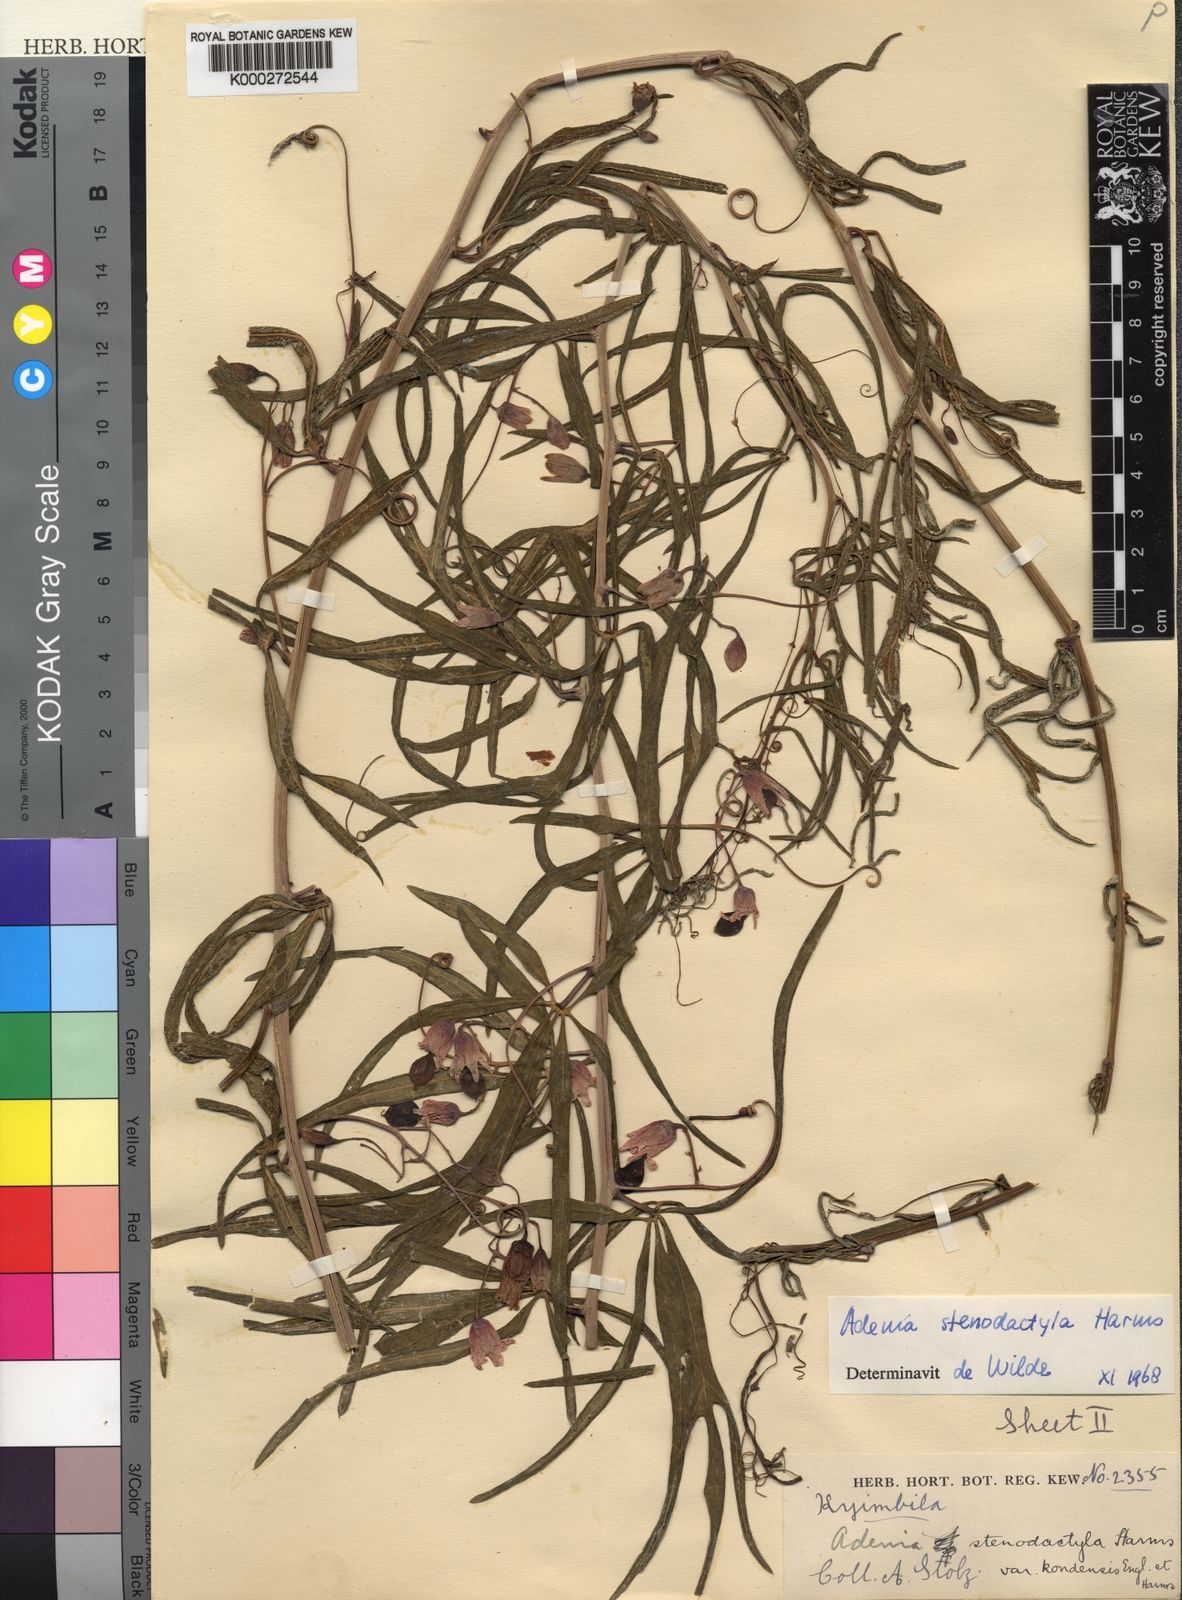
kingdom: Plantae
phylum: Tracheophyta
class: Magnoliopsida
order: Malpighiales
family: Passifloraceae
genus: Adenia
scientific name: Adenia stenodactyla
